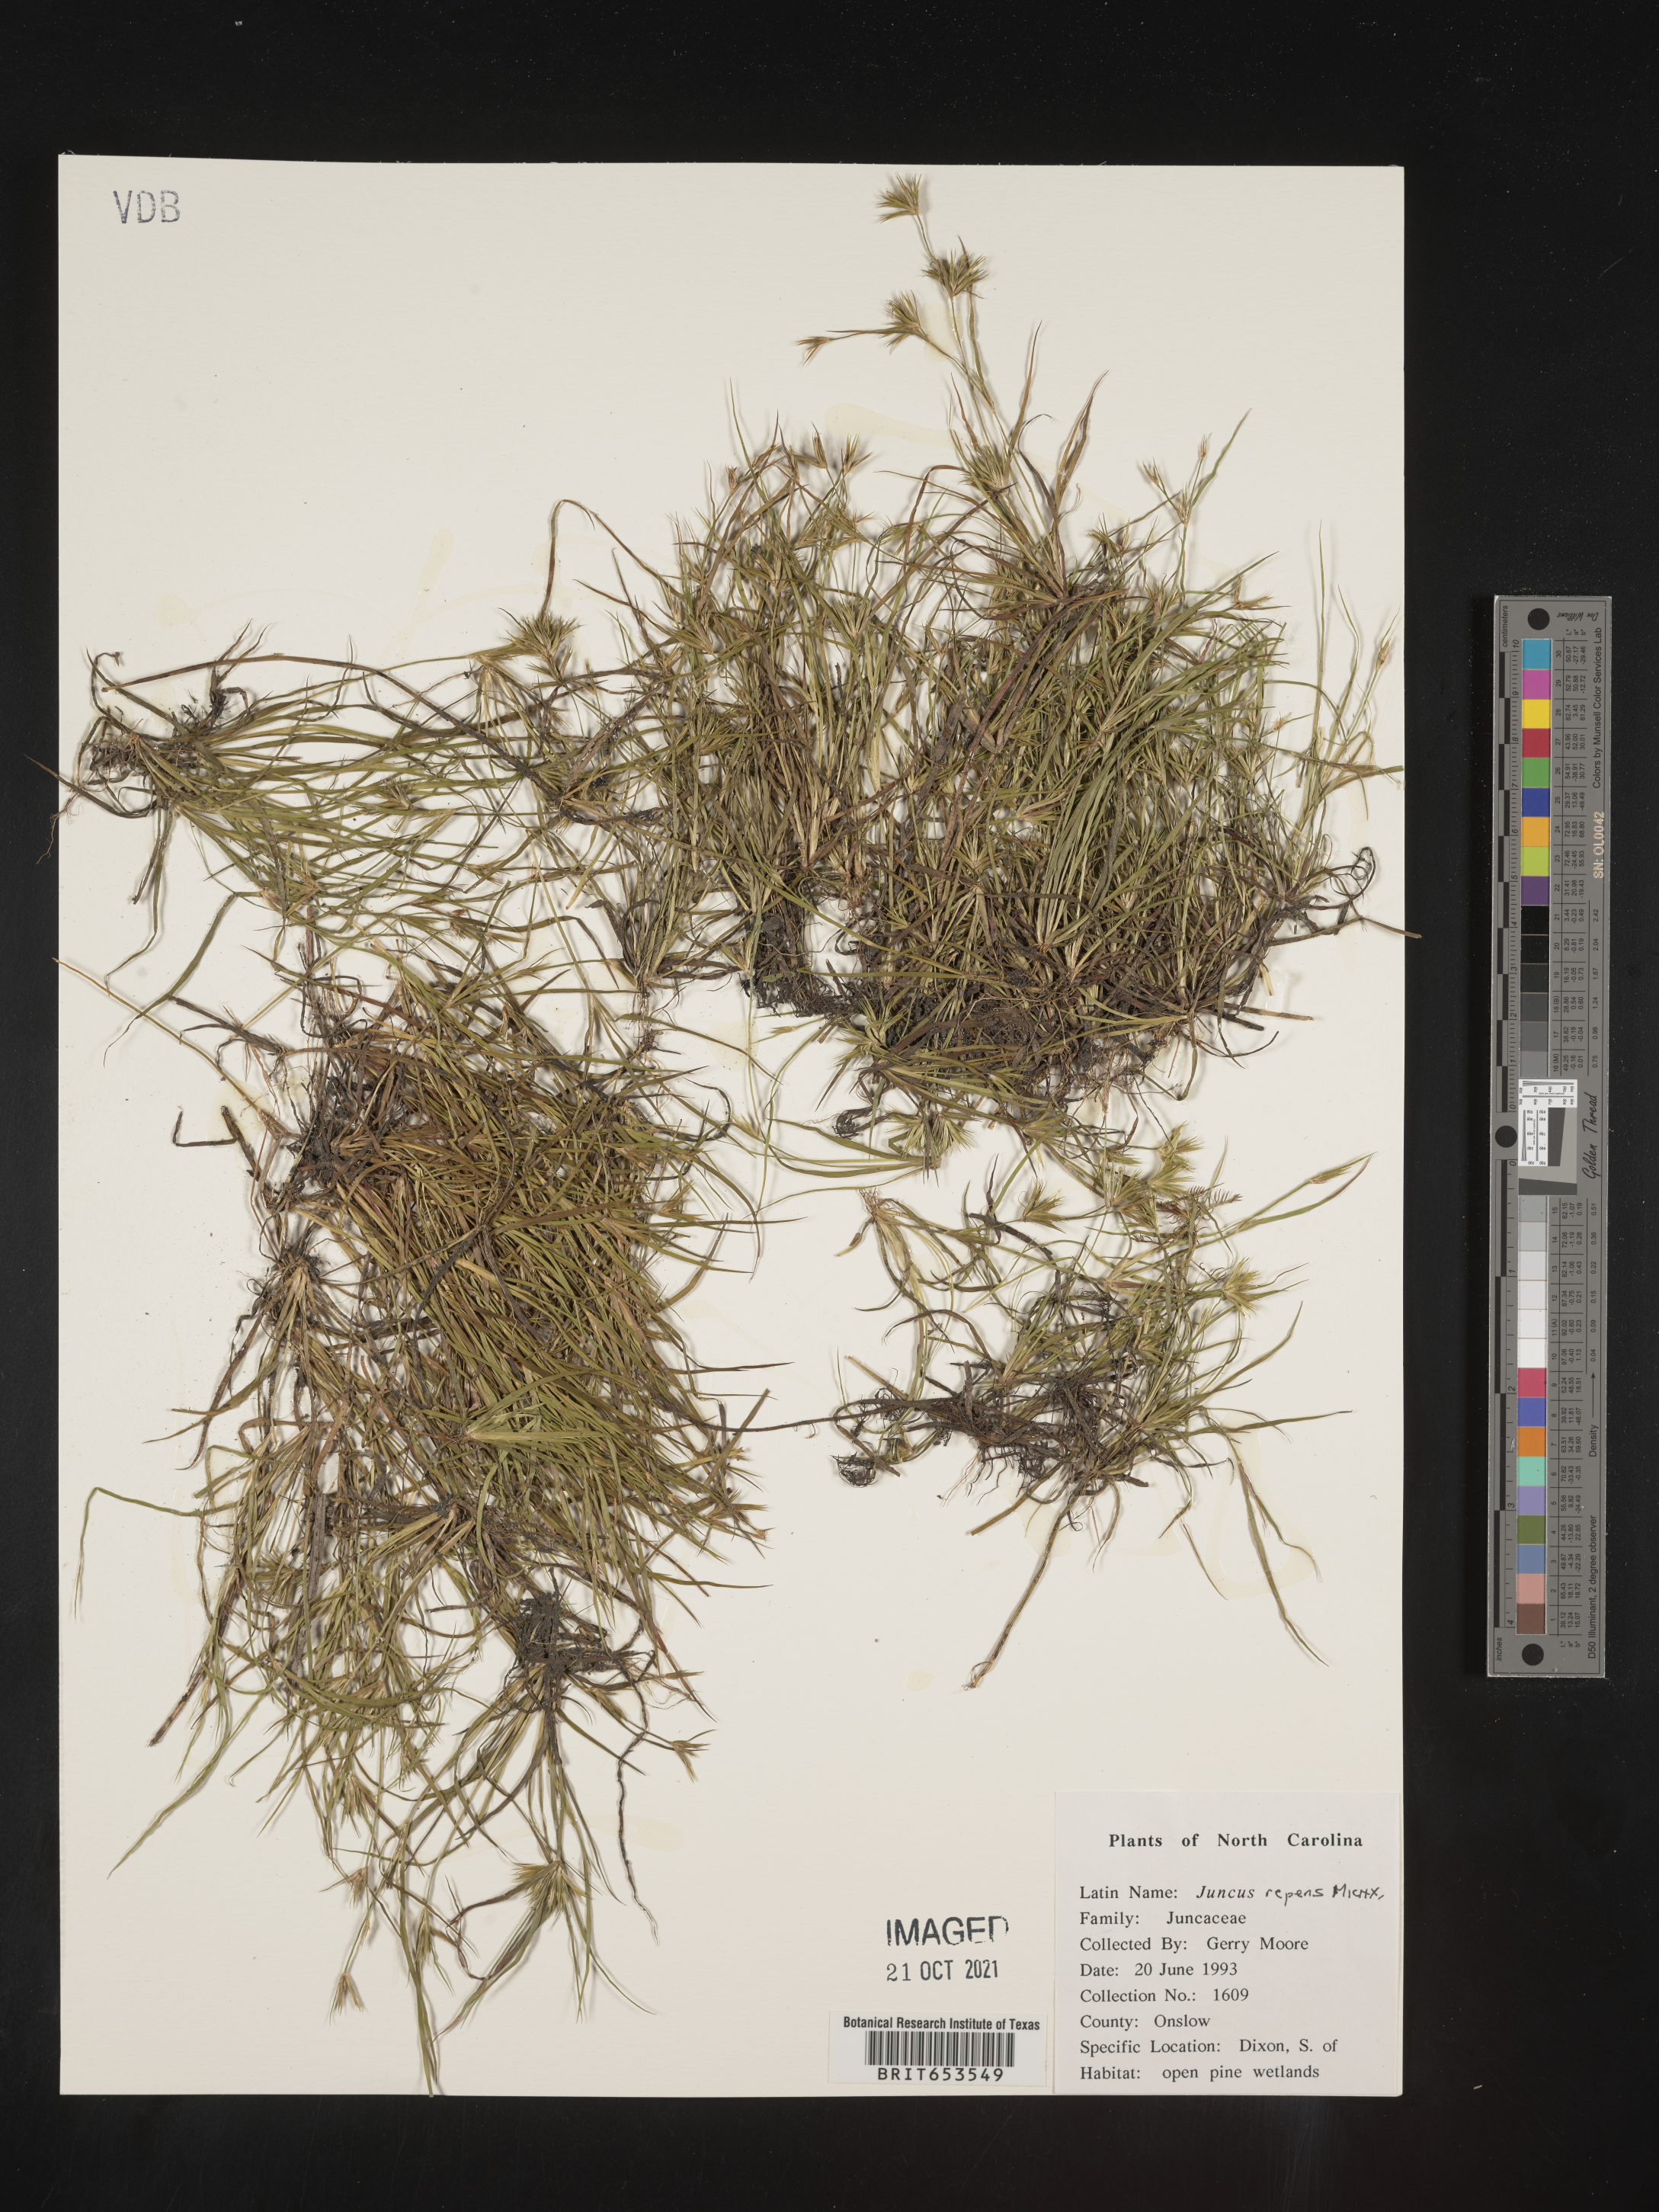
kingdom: Plantae
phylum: Tracheophyta
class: Liliopsida
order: Poales
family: Juncaceae
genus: Juncus
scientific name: Juncus repens
